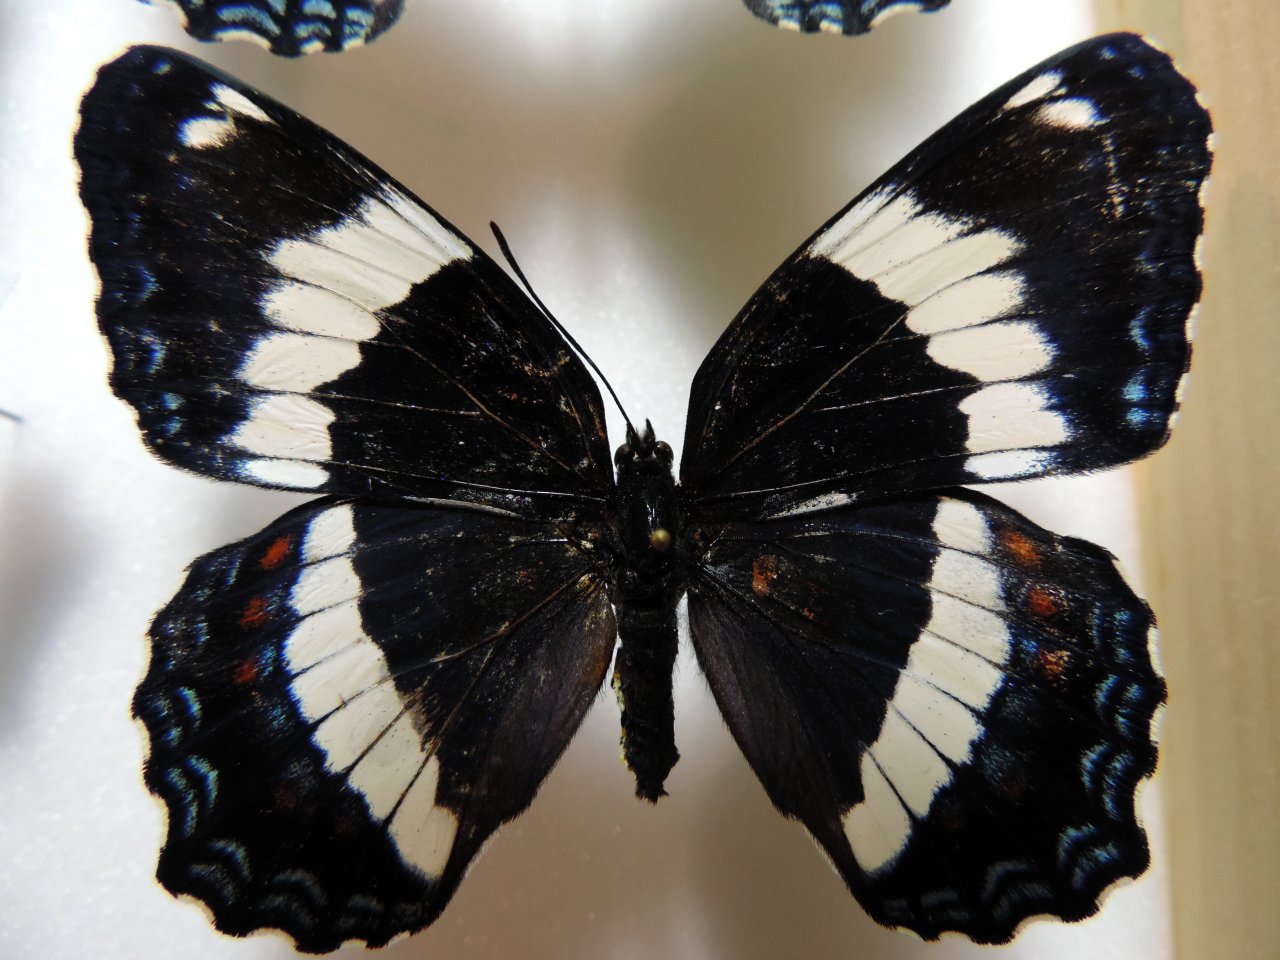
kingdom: Animalia
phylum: Arthropoda
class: Insecta
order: Lepidoptera
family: Nymphalidae
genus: Limenitis
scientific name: Limenitis arthemis
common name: Red-spotted Admiral
